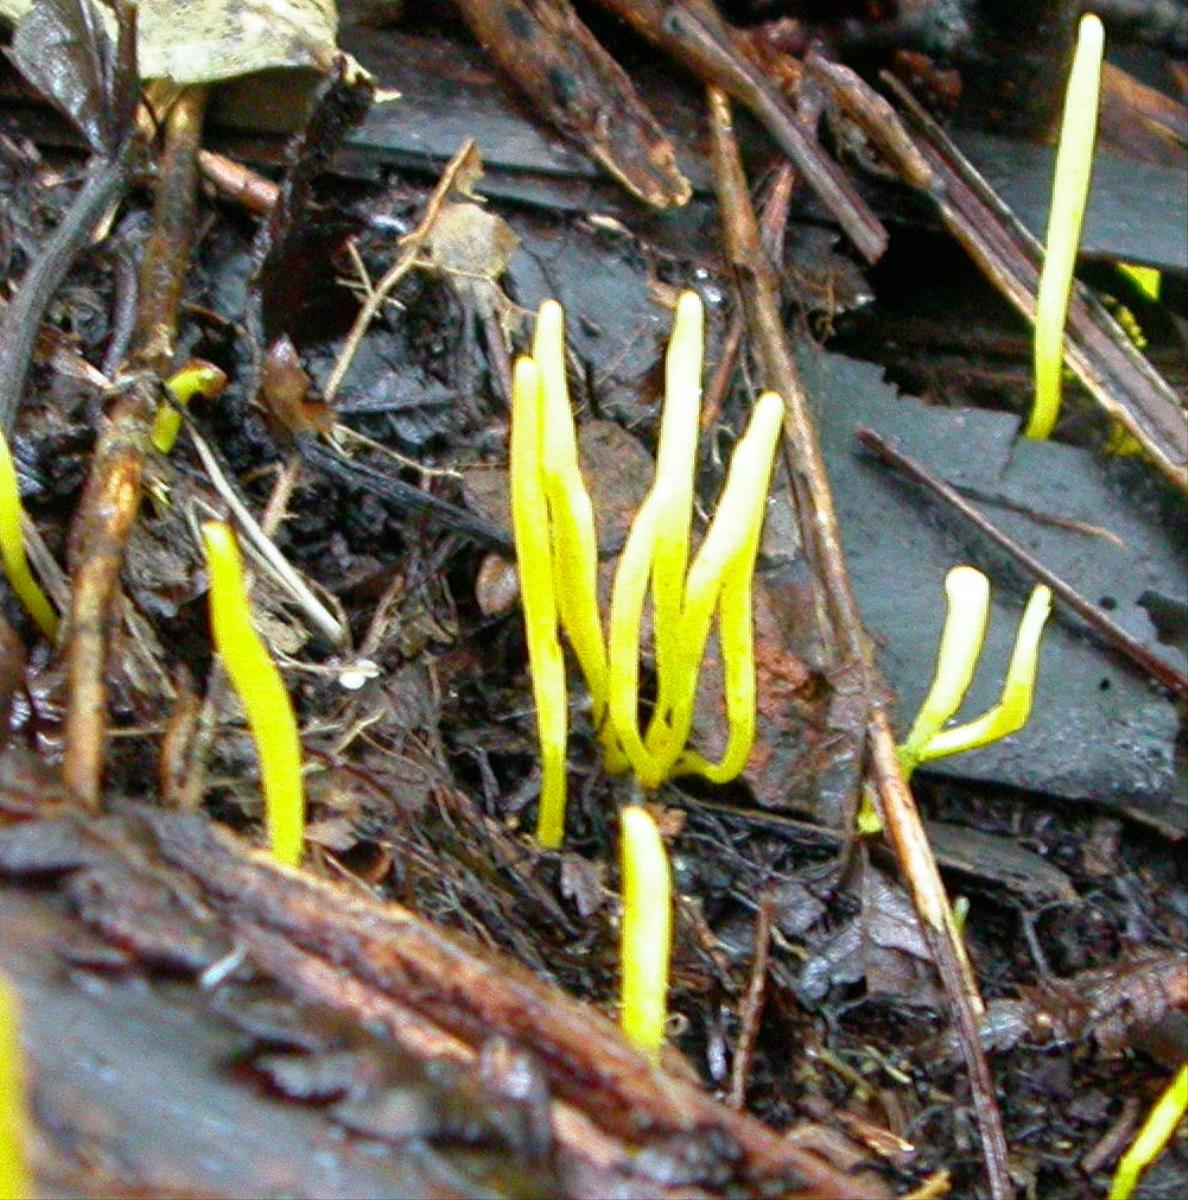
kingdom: Fungi
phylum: Basidiomycota
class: Agaricomycetes
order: Agaricales
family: Clavariaceae
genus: Clavulinopsis
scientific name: Clavulinopsis antillarum
